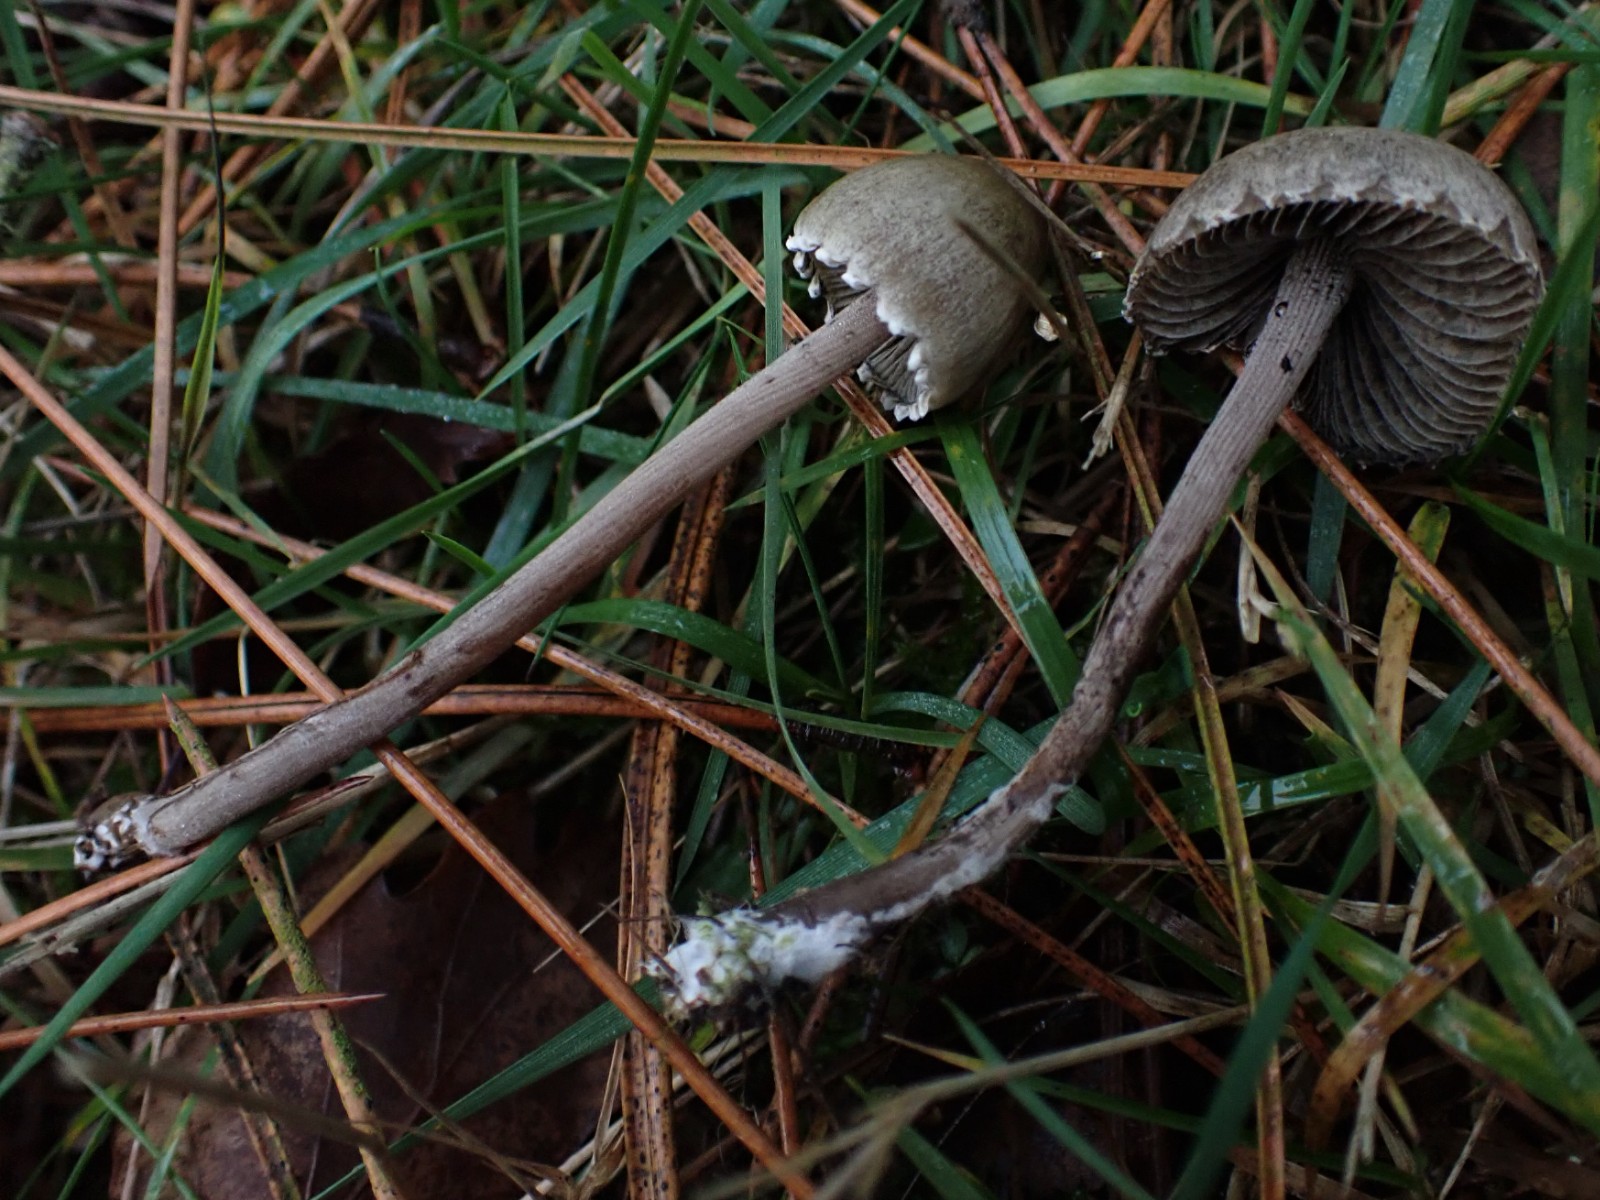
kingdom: Fungi
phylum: Basidiomycota
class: Agaricomycetes
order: Agaricales
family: Bolbitiaceae
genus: Panaeolus
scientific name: Panaeolus papilionaceus
